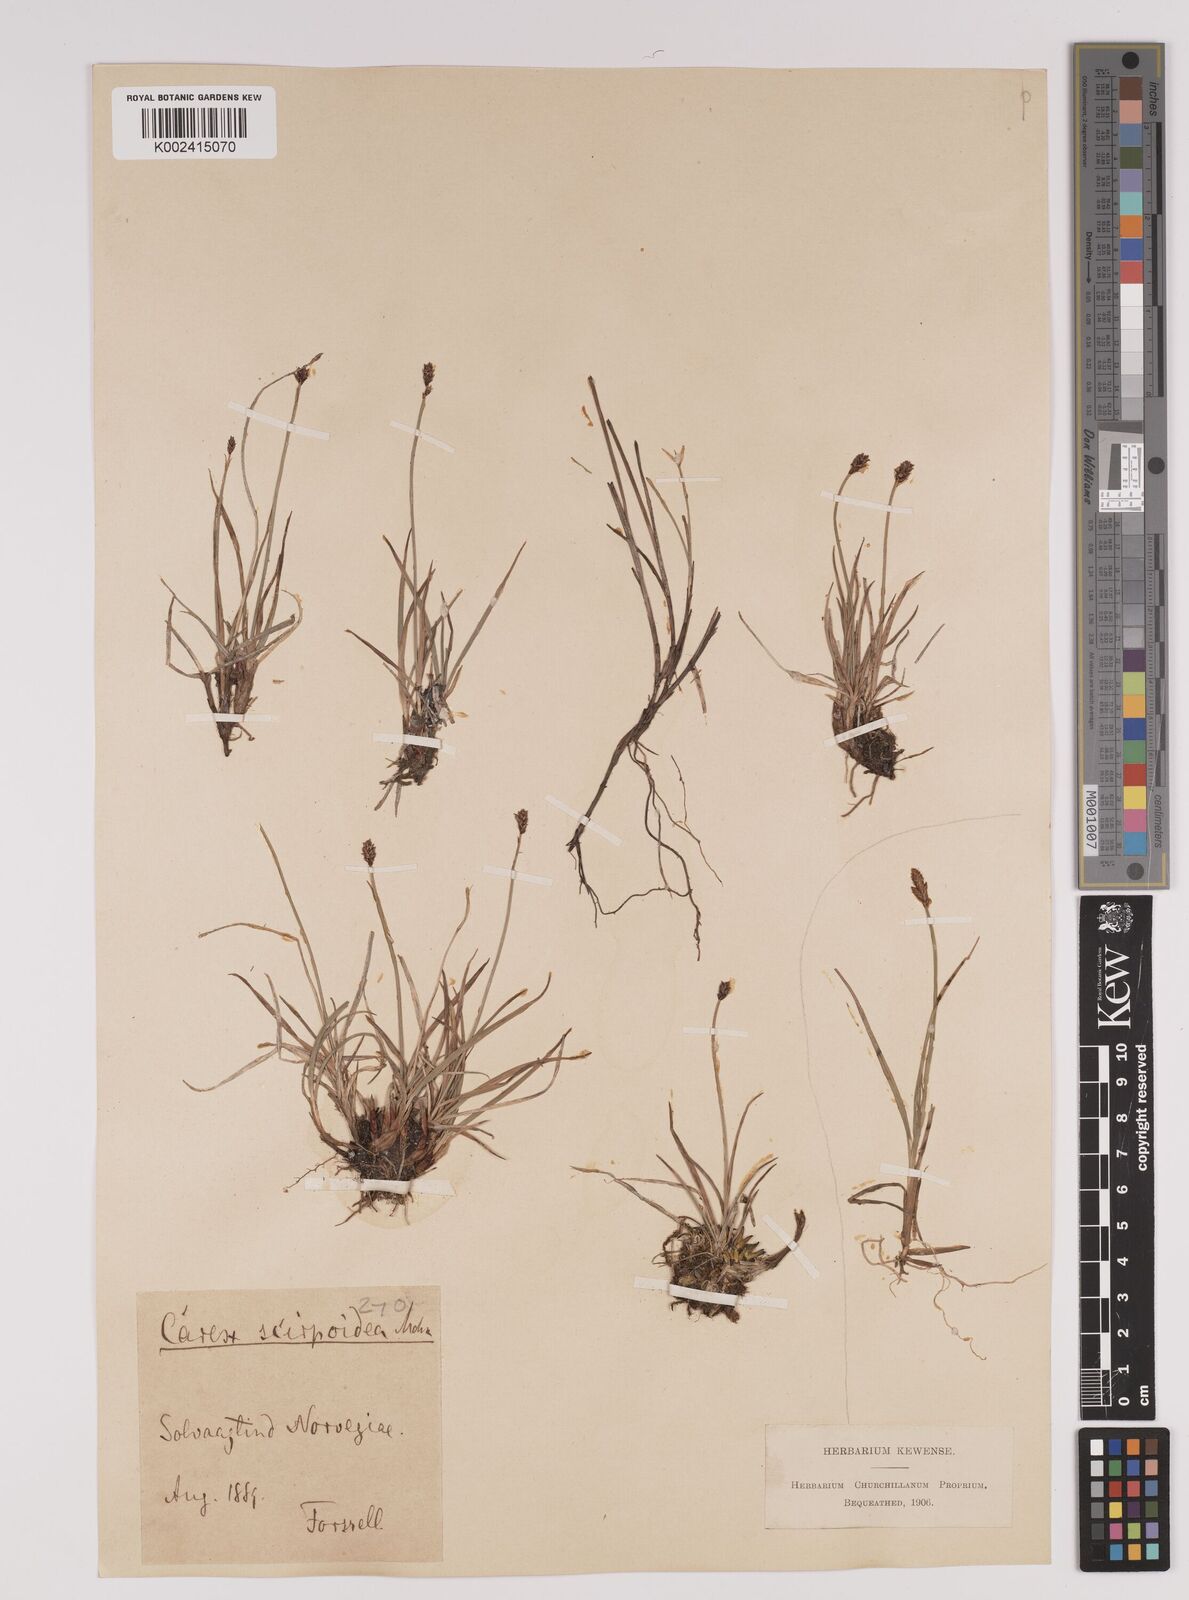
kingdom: Plantae
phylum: Tracheophyta
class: Liliopsida
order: Poales
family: Cyperaceae
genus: Carex
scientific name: Carex
